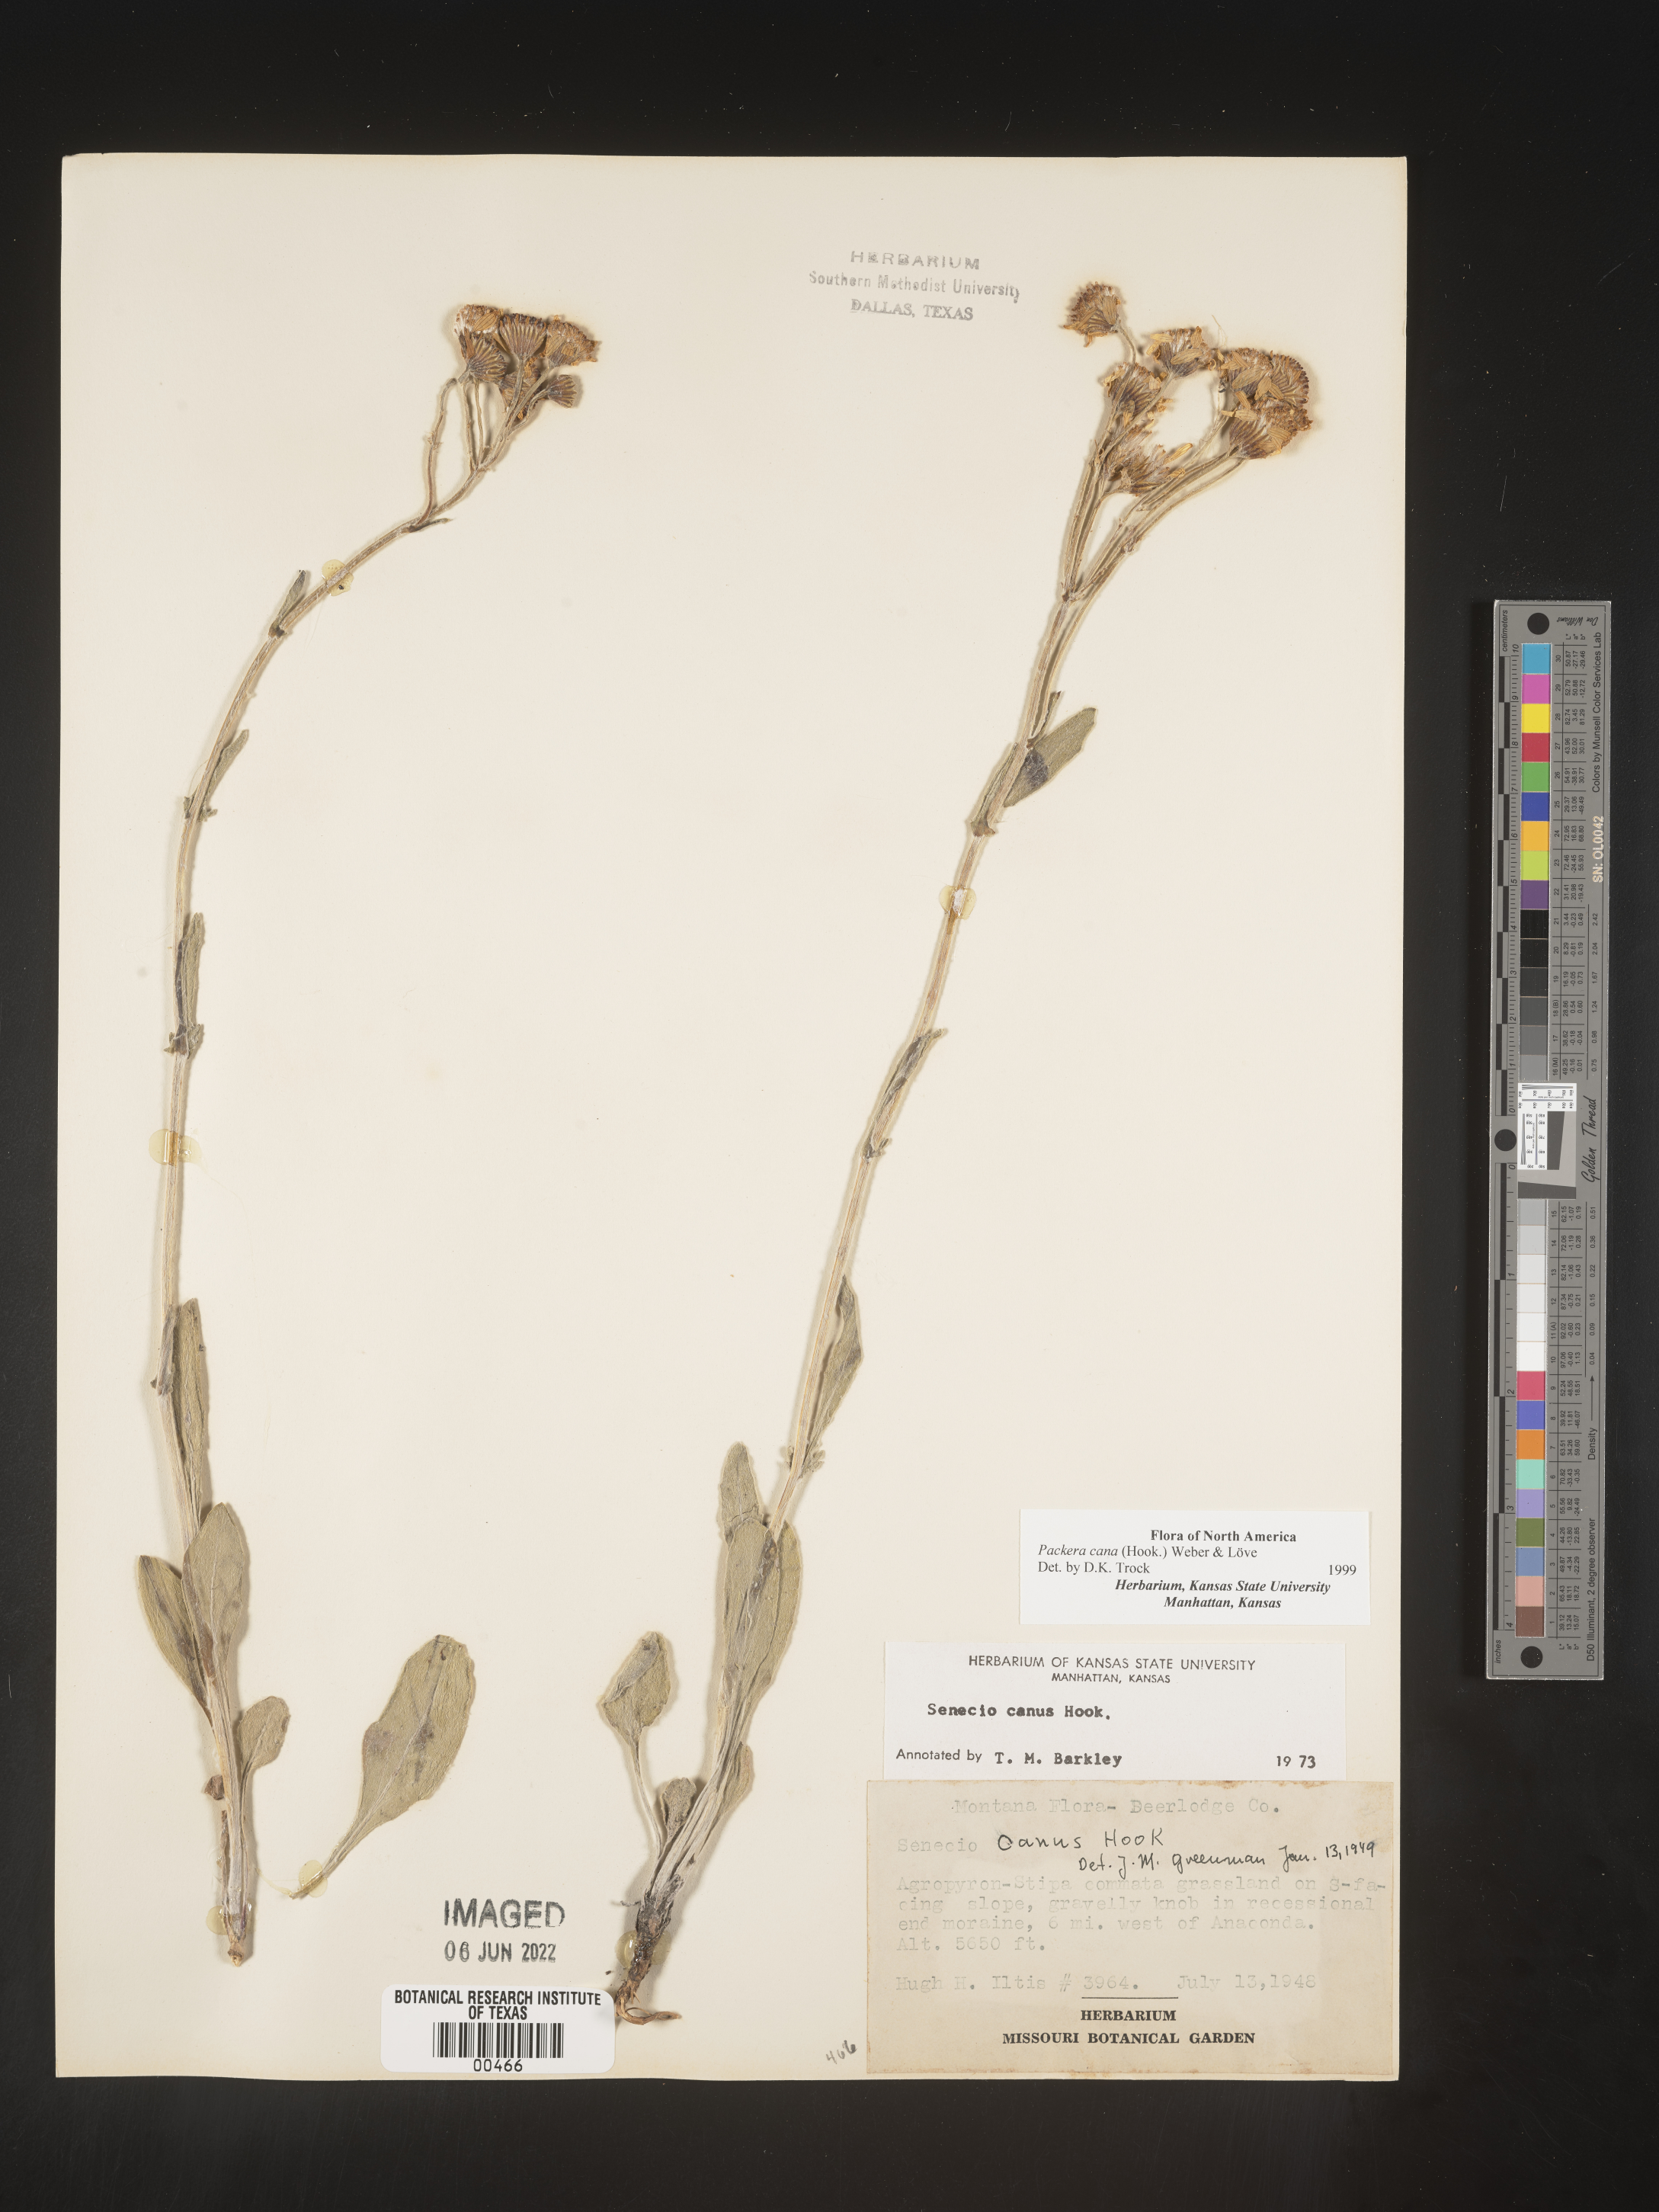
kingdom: Plantae
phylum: Tracheophyta
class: Magnoliopsida
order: Asterales
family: Asteraceae
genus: Packera
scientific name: Packera cana
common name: Woolly groundsel
